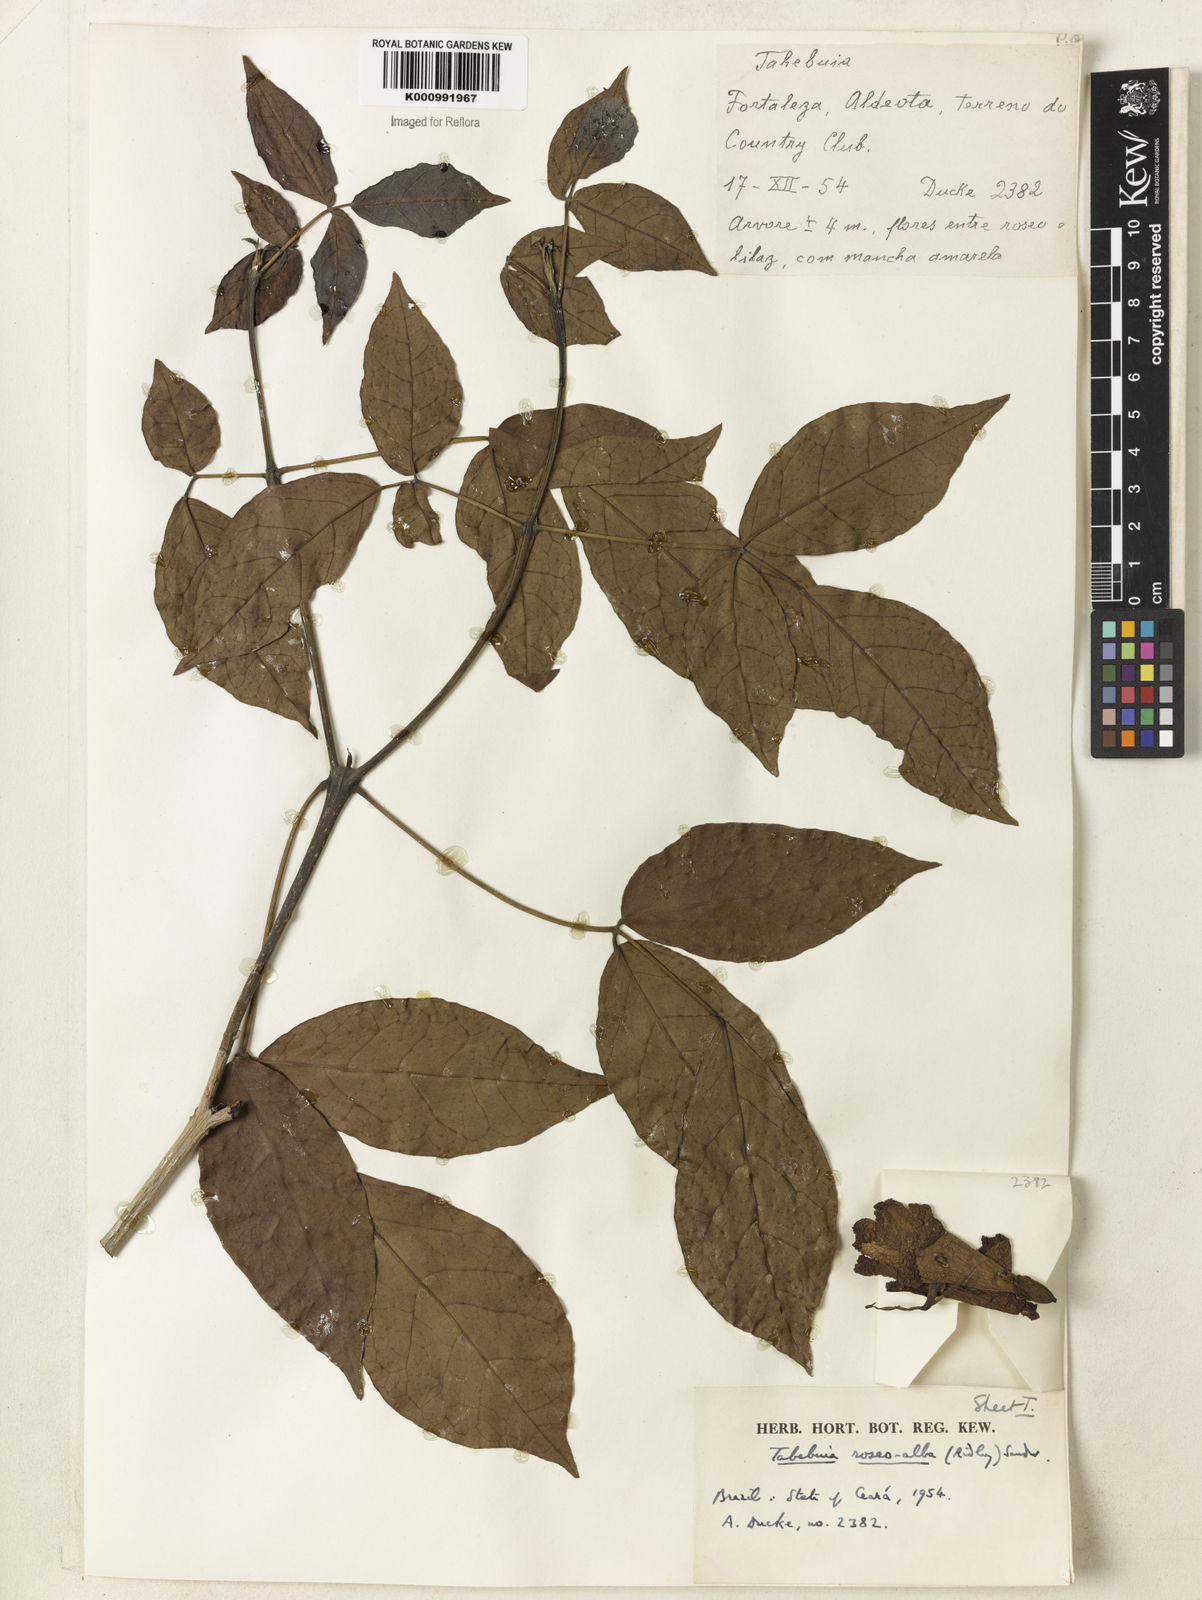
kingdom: Plantae
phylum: Tracheophyta
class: Magnoliopsida
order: Lamiales
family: Bignoniaceae
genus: Tabebuia
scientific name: Tabebuia roseoalba
